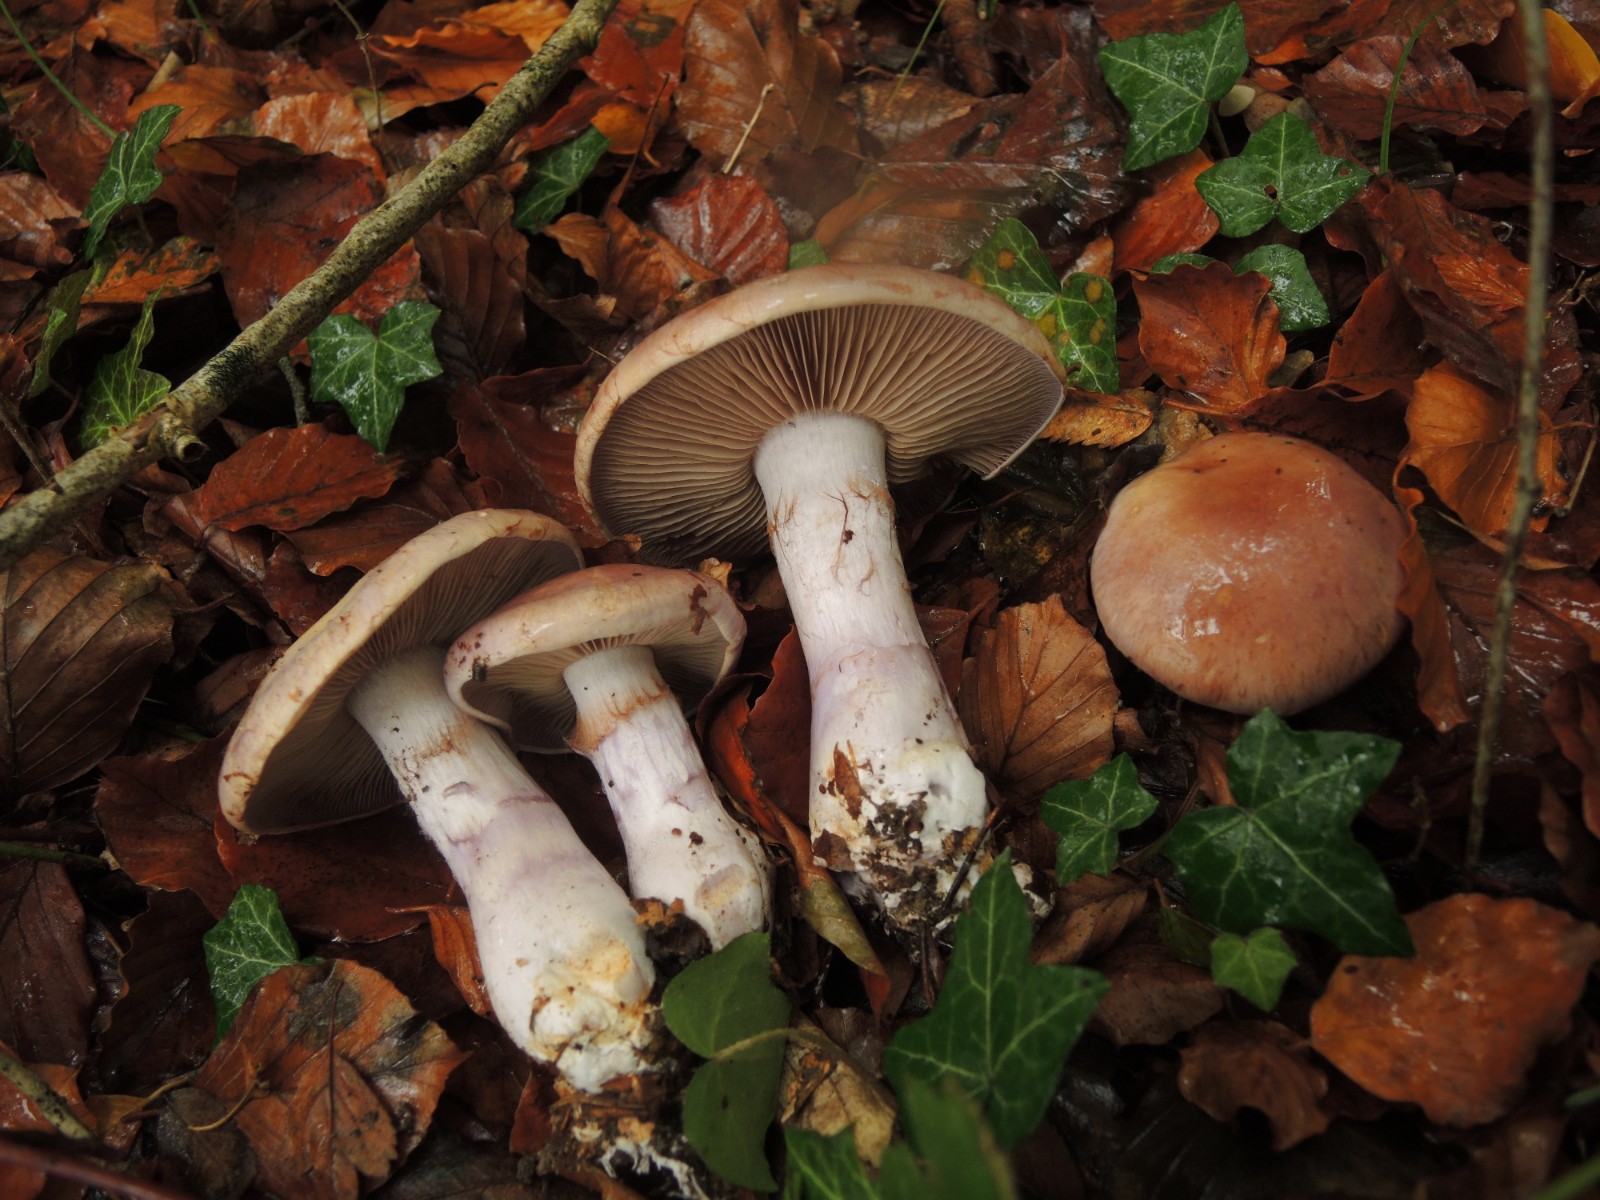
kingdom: Fungi
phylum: Basidiomycota
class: Agaricomycetes
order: Agaricales
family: Cortinariaceae
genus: Cortinarius
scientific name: Cortinarius largus
